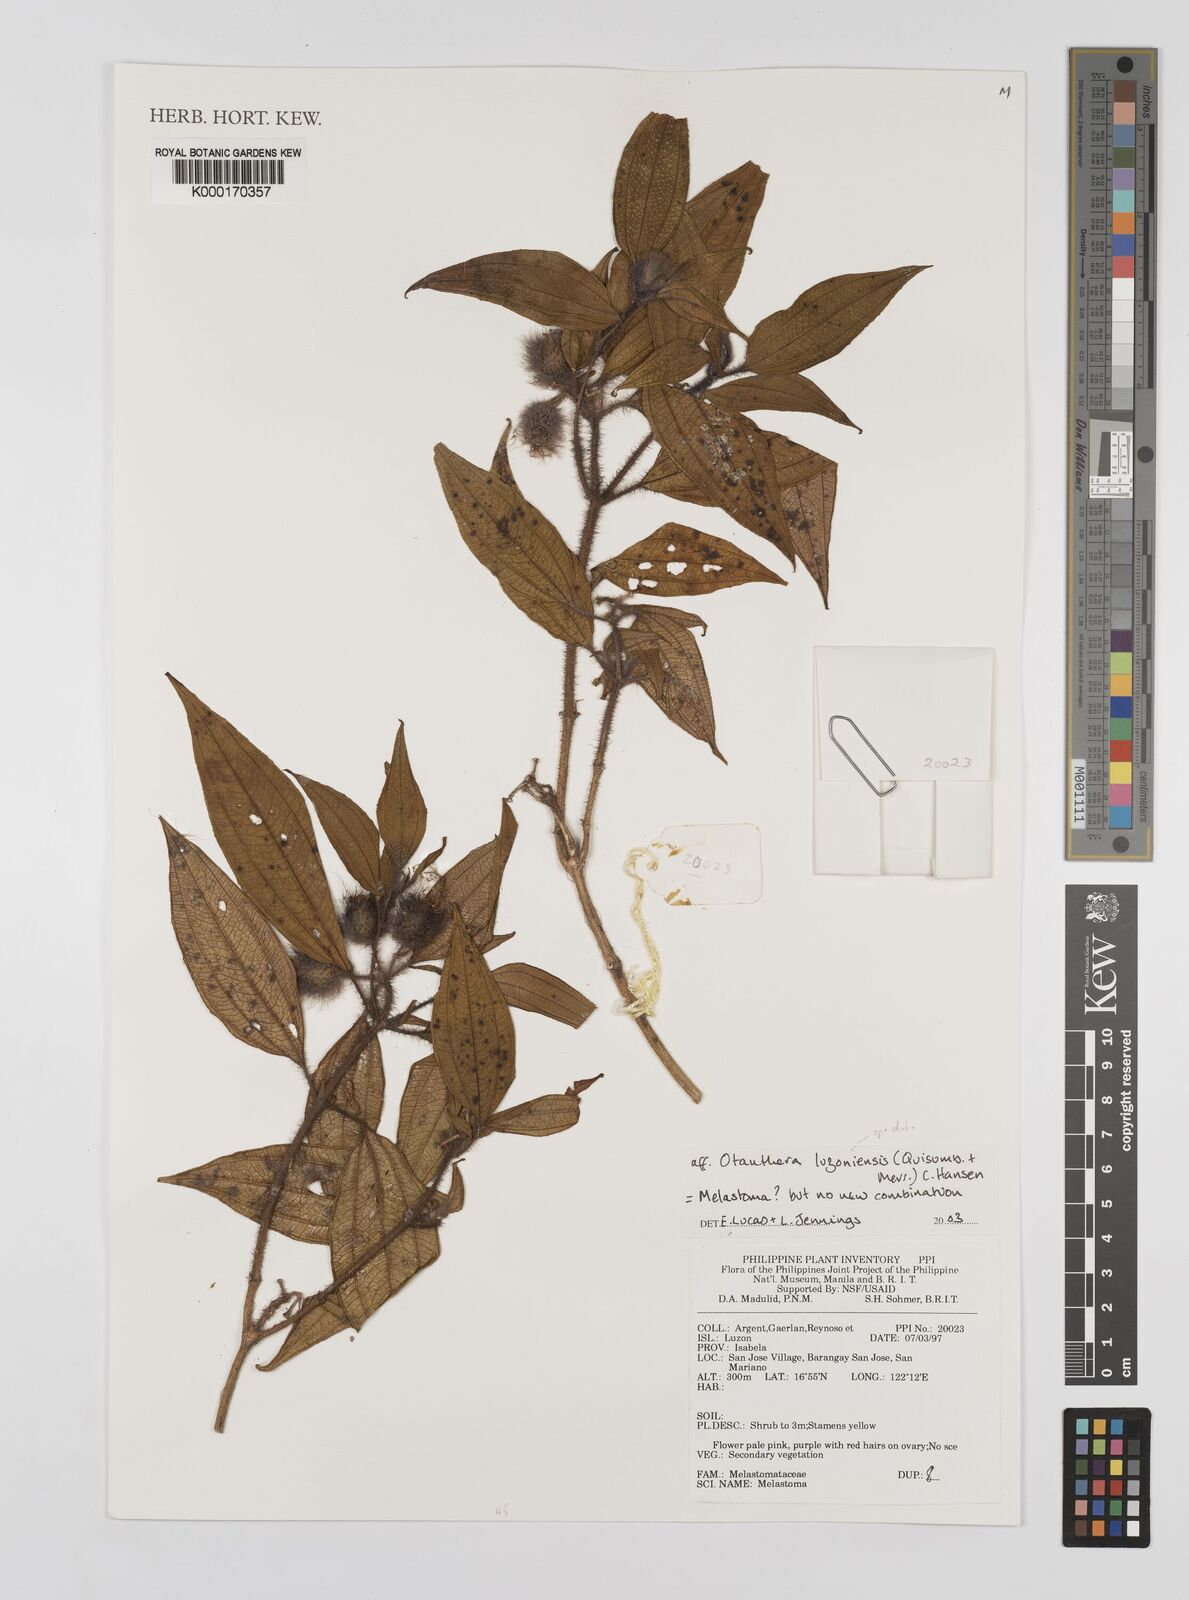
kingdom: Plantae
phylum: Tracheophyta
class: Magnoliopsida
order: Myrtales
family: Melastomataceae
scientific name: Melastomataceae
